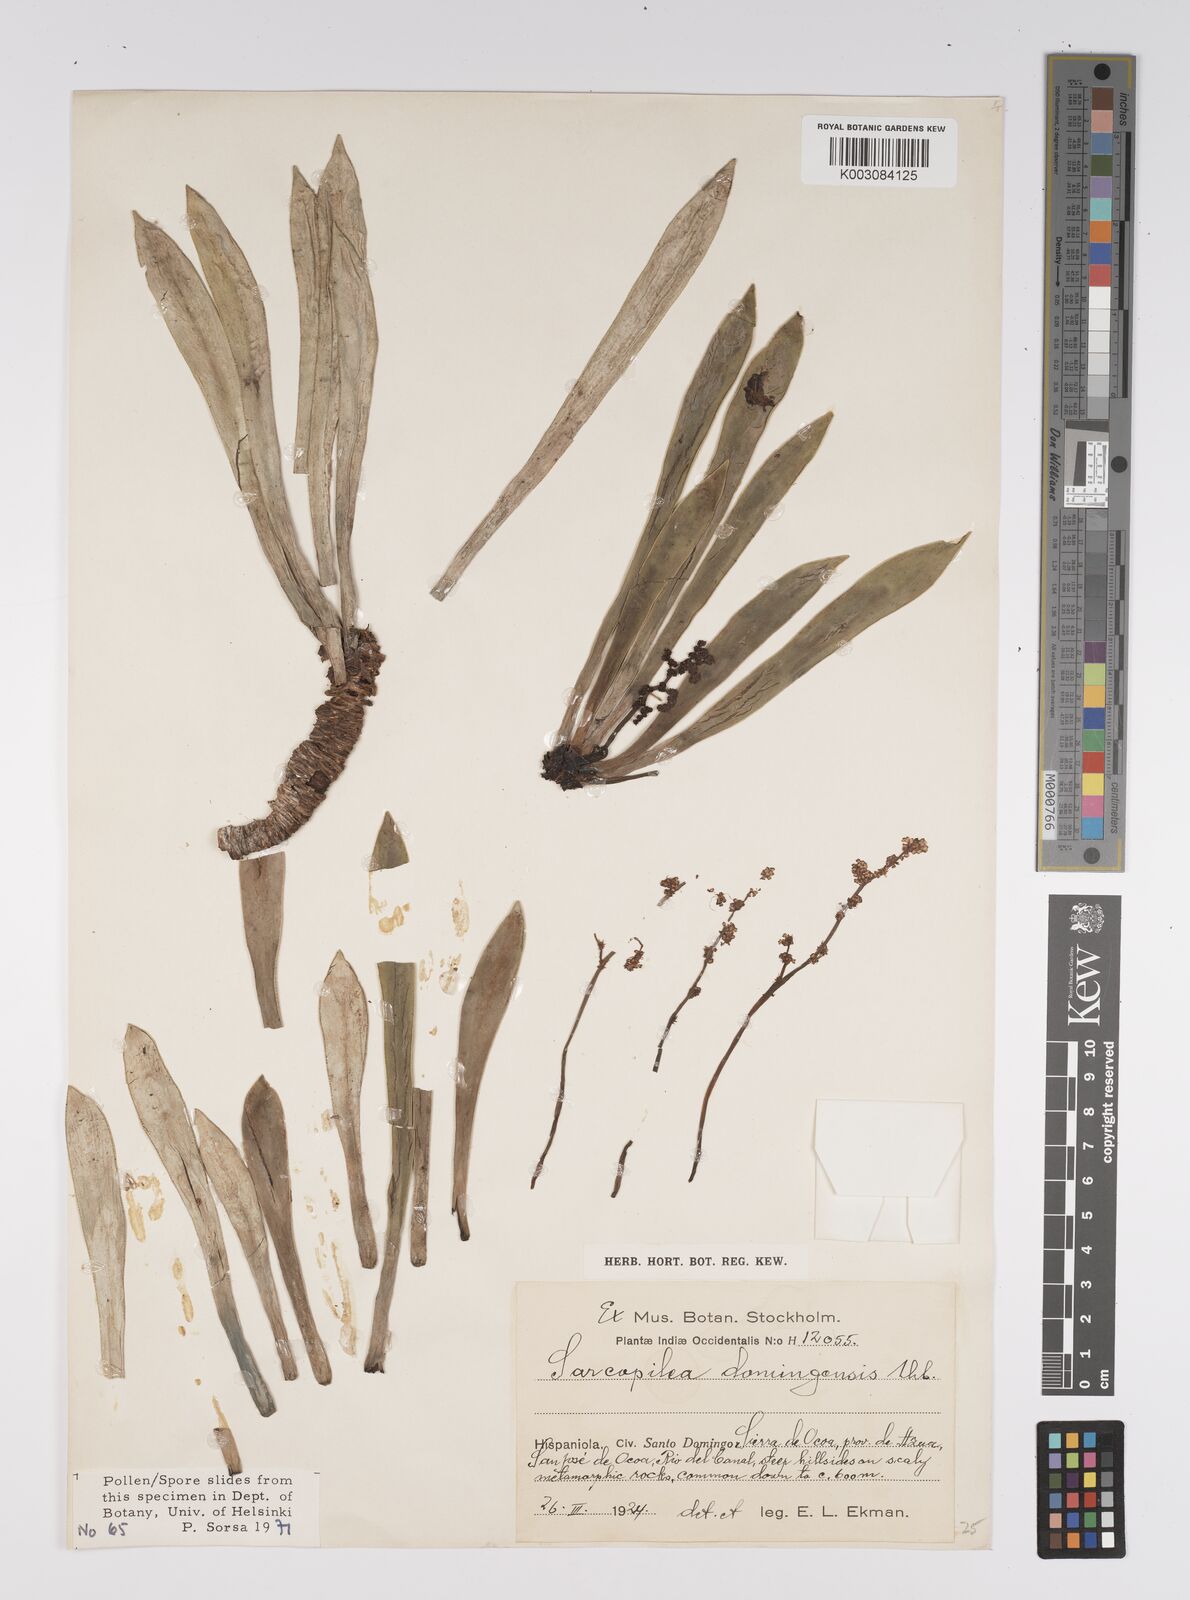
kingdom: Plantae
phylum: Tracheophyta
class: Magnoliopsida
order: Rosales
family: Urticaceae
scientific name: Urticaceae
